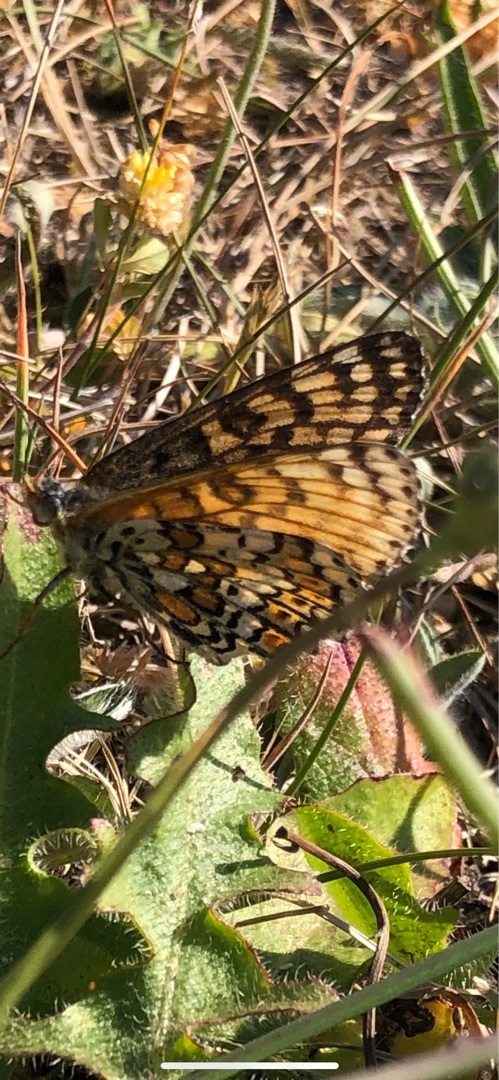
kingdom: Animalia
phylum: Arthropoda
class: Insecta
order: Lepidoptera
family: Nymphalidae
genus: Melitaea
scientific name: Melitaea cinxia
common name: Okkergul pletvinge
